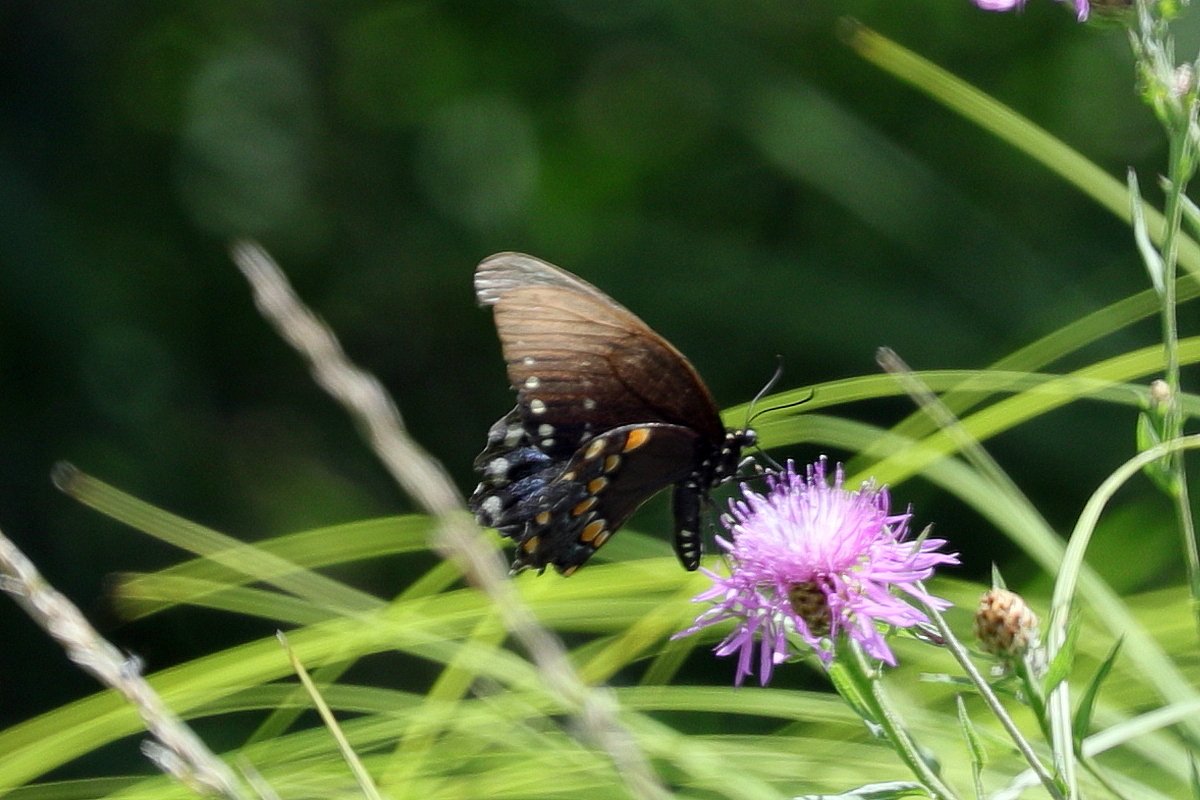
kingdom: Animalia
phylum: Arthropoda
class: Insecta
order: Lepidoptera
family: Papilionidae
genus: Pterourus
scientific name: Pterourus troilus
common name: Spicebush Swallowtail
